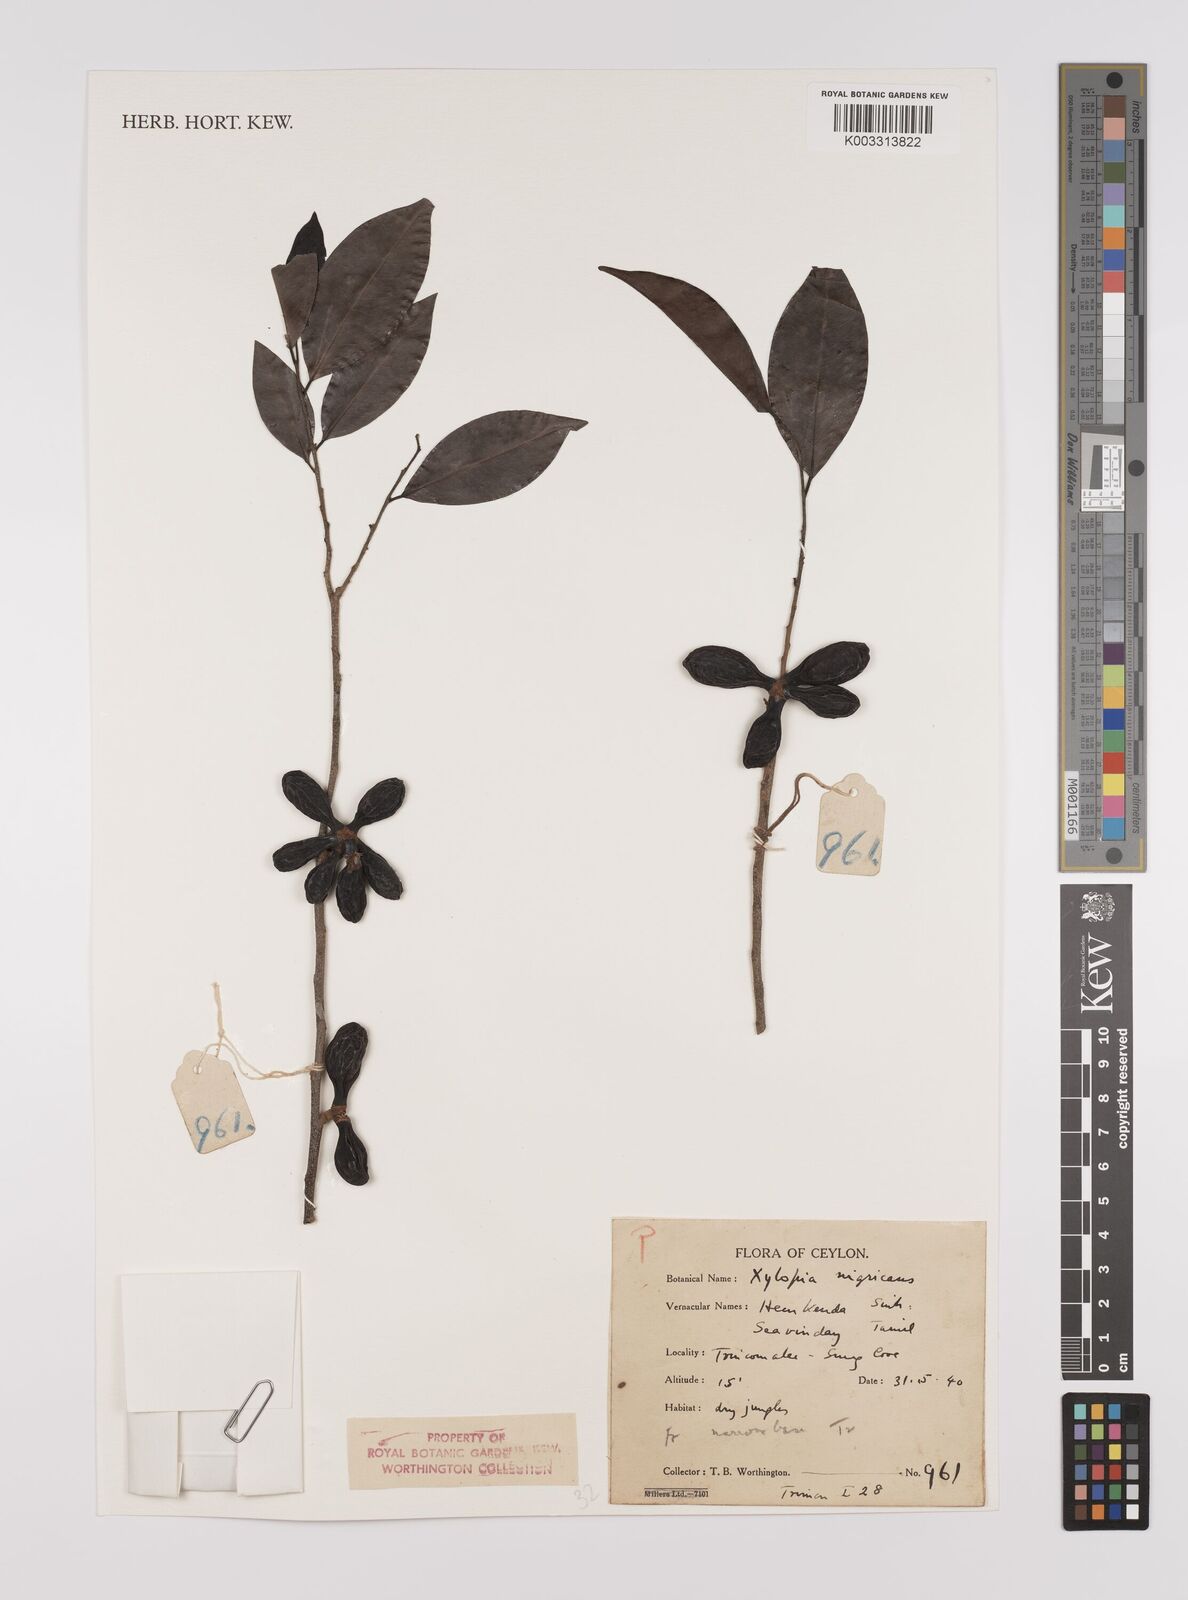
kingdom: Plantae
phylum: Tracheophyta
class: Magnoliopsida
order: Magnoliales
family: Annonaceae
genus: Xylopia
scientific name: Xylopia nigricans
